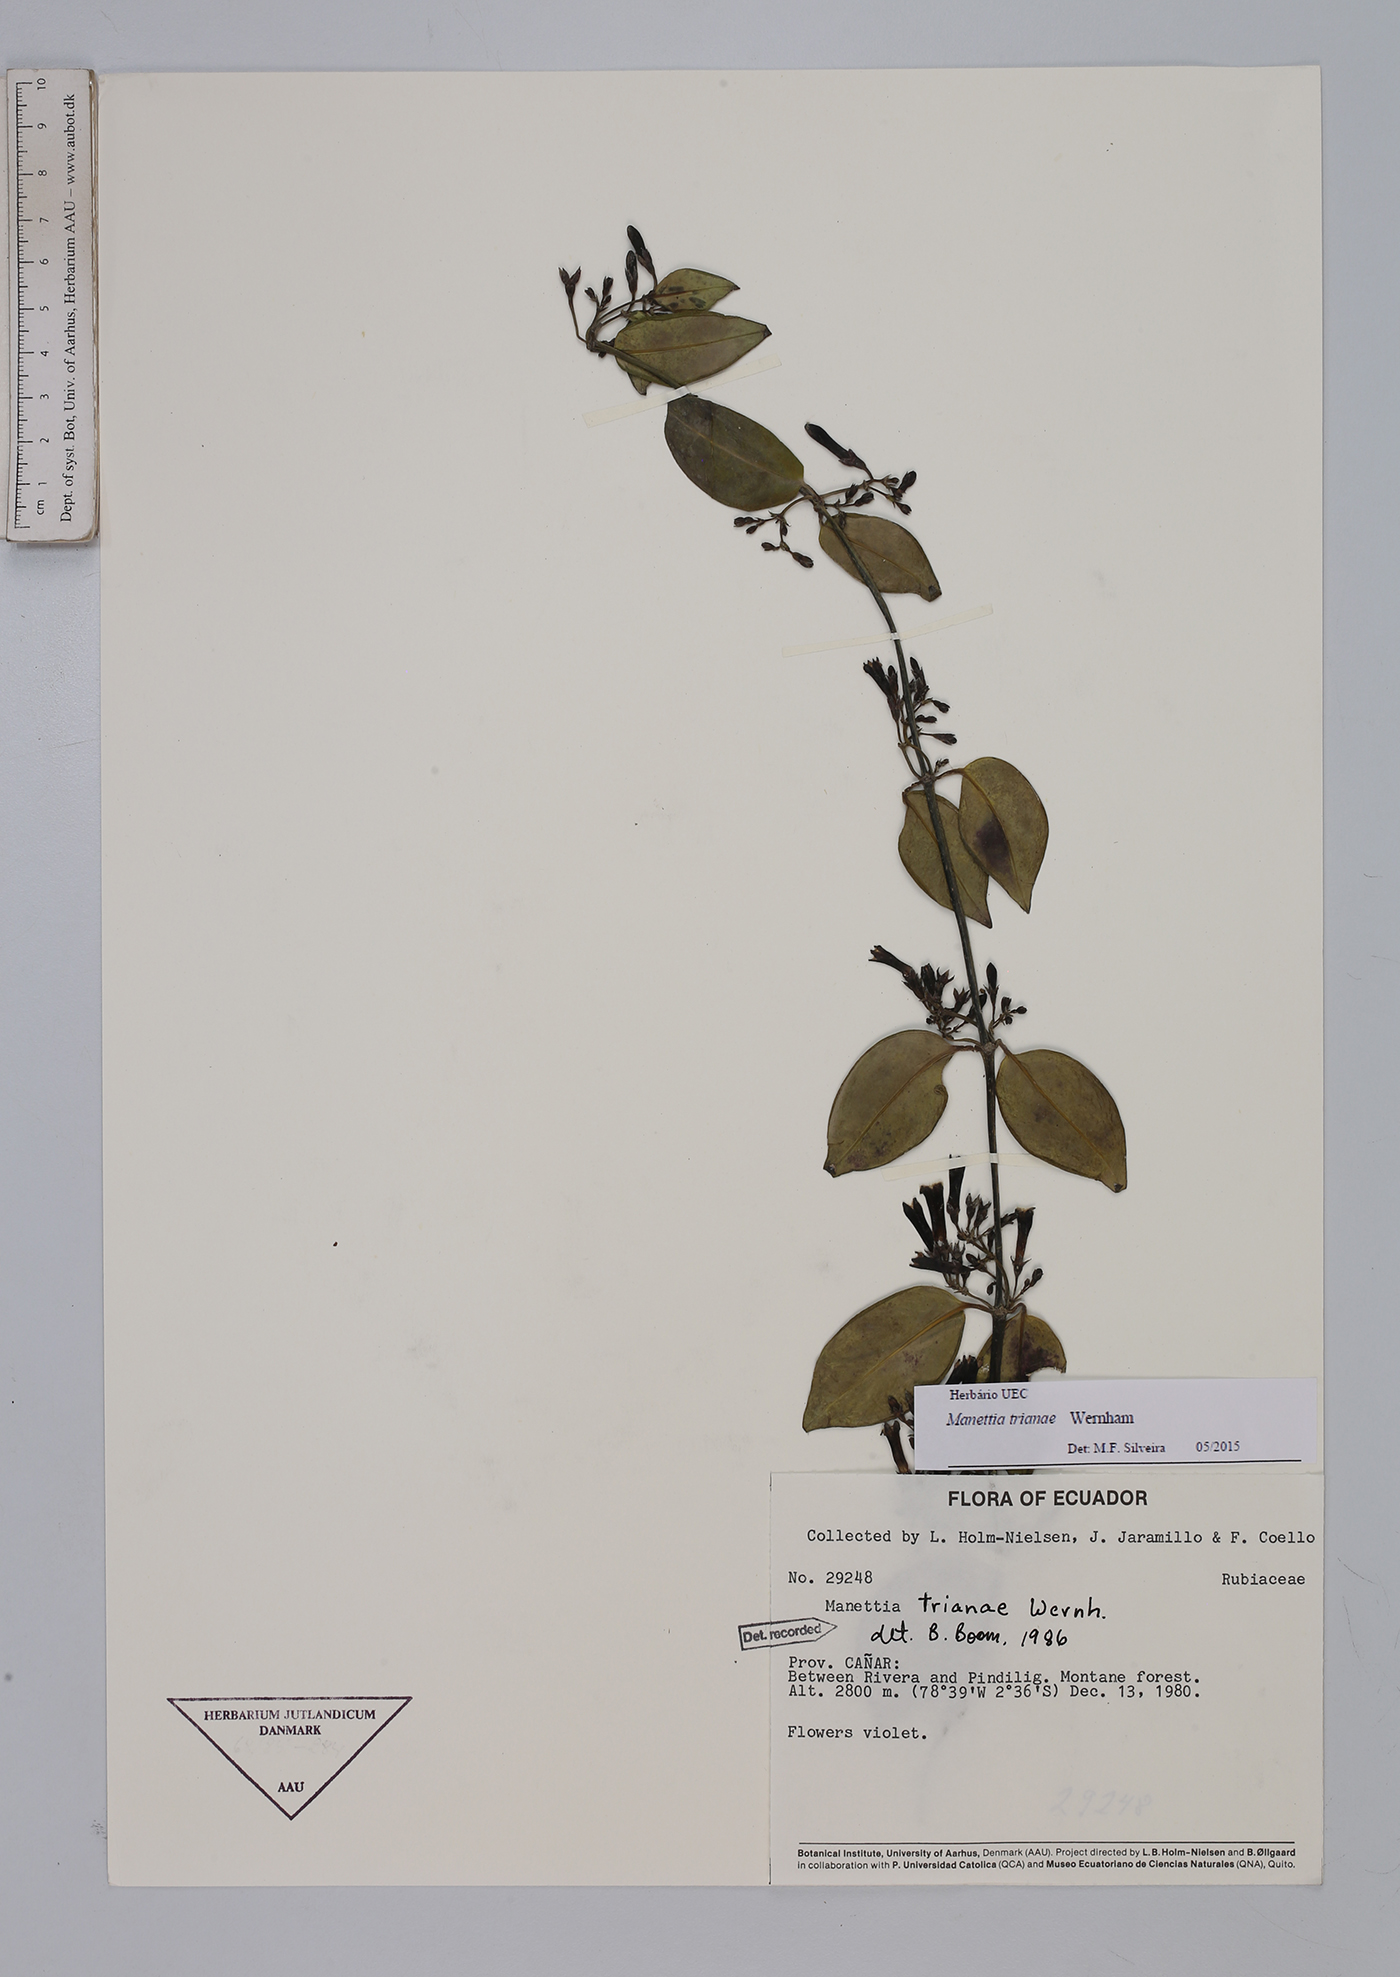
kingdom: Plantae
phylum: Tracheophyta
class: Magnoliopsida
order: Gentianales
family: Rubiaceae
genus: Manettia
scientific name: Manettia trianae
